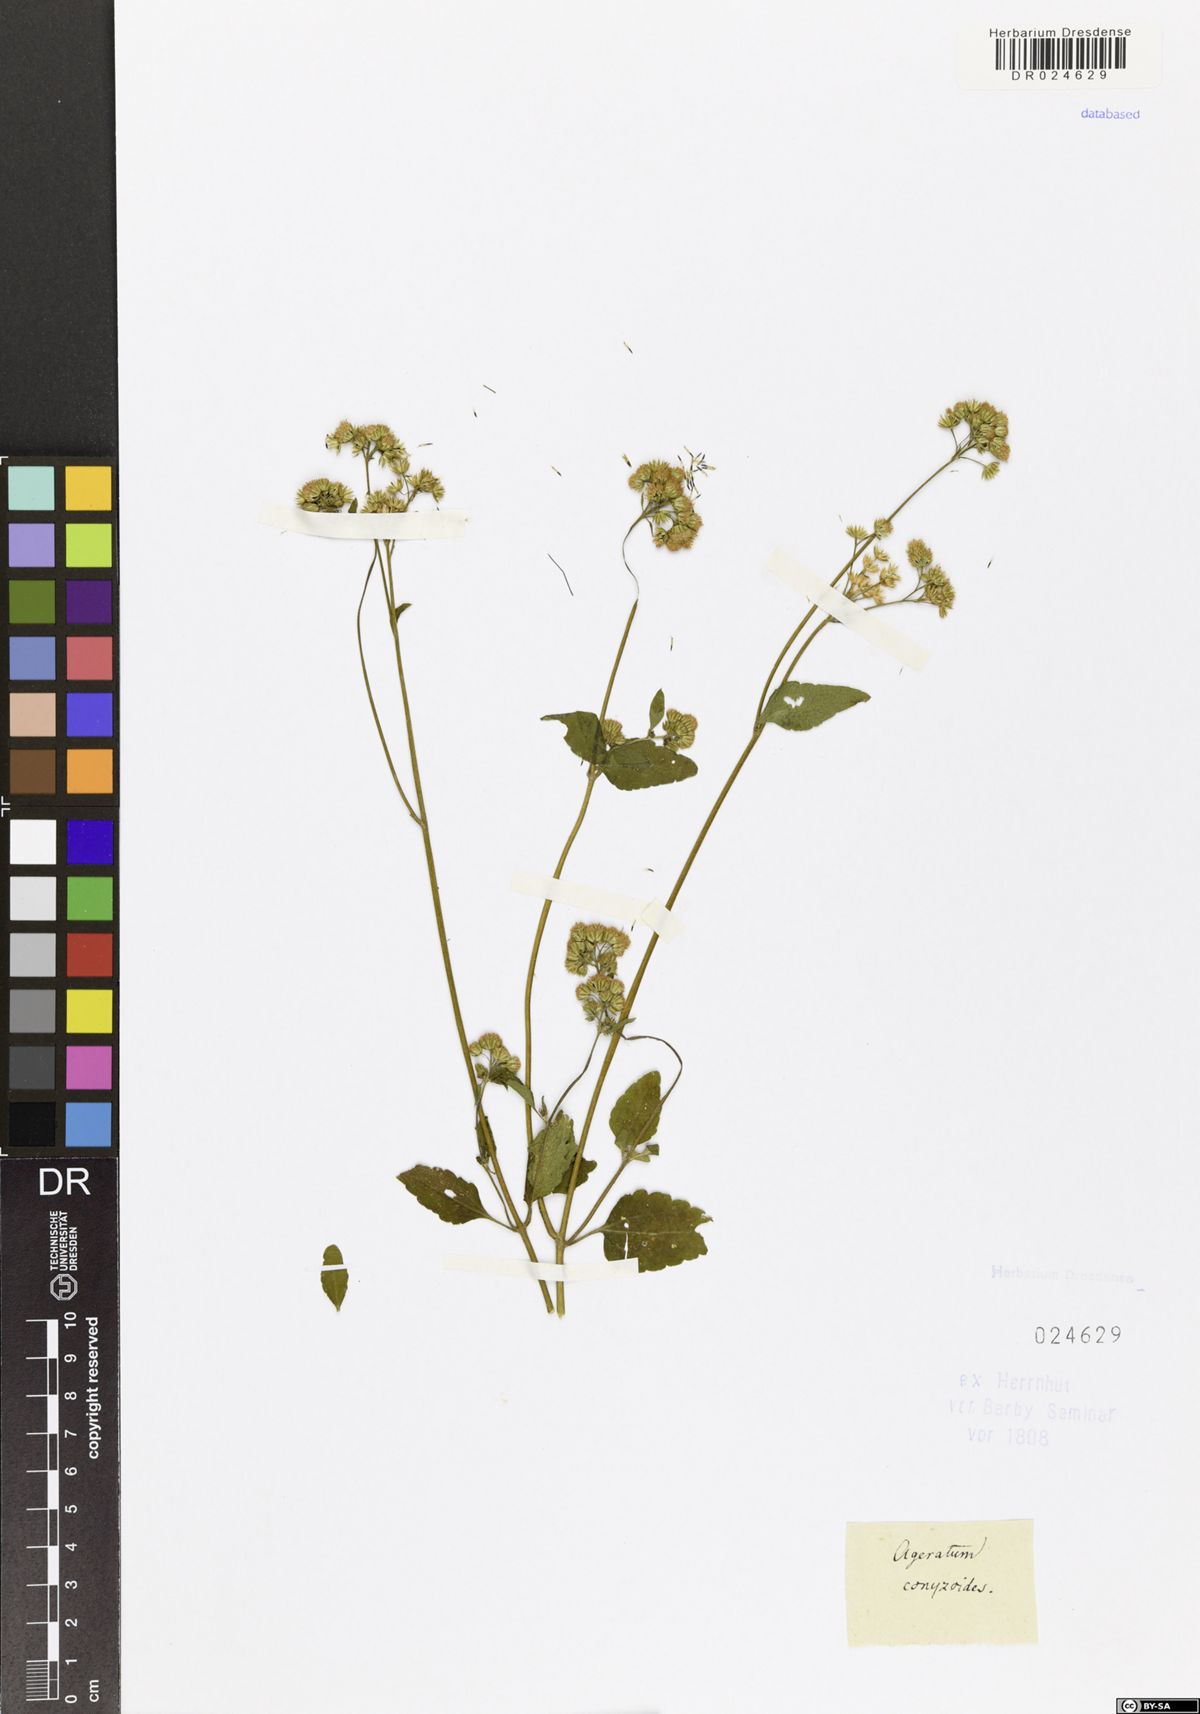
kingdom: Plantae
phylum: Tracheophyta
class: Magnoliopsida
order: Asterales
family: Asteraceae
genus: Ageratum
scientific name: Ageratum conyzoides
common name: Tropical whiteweed
